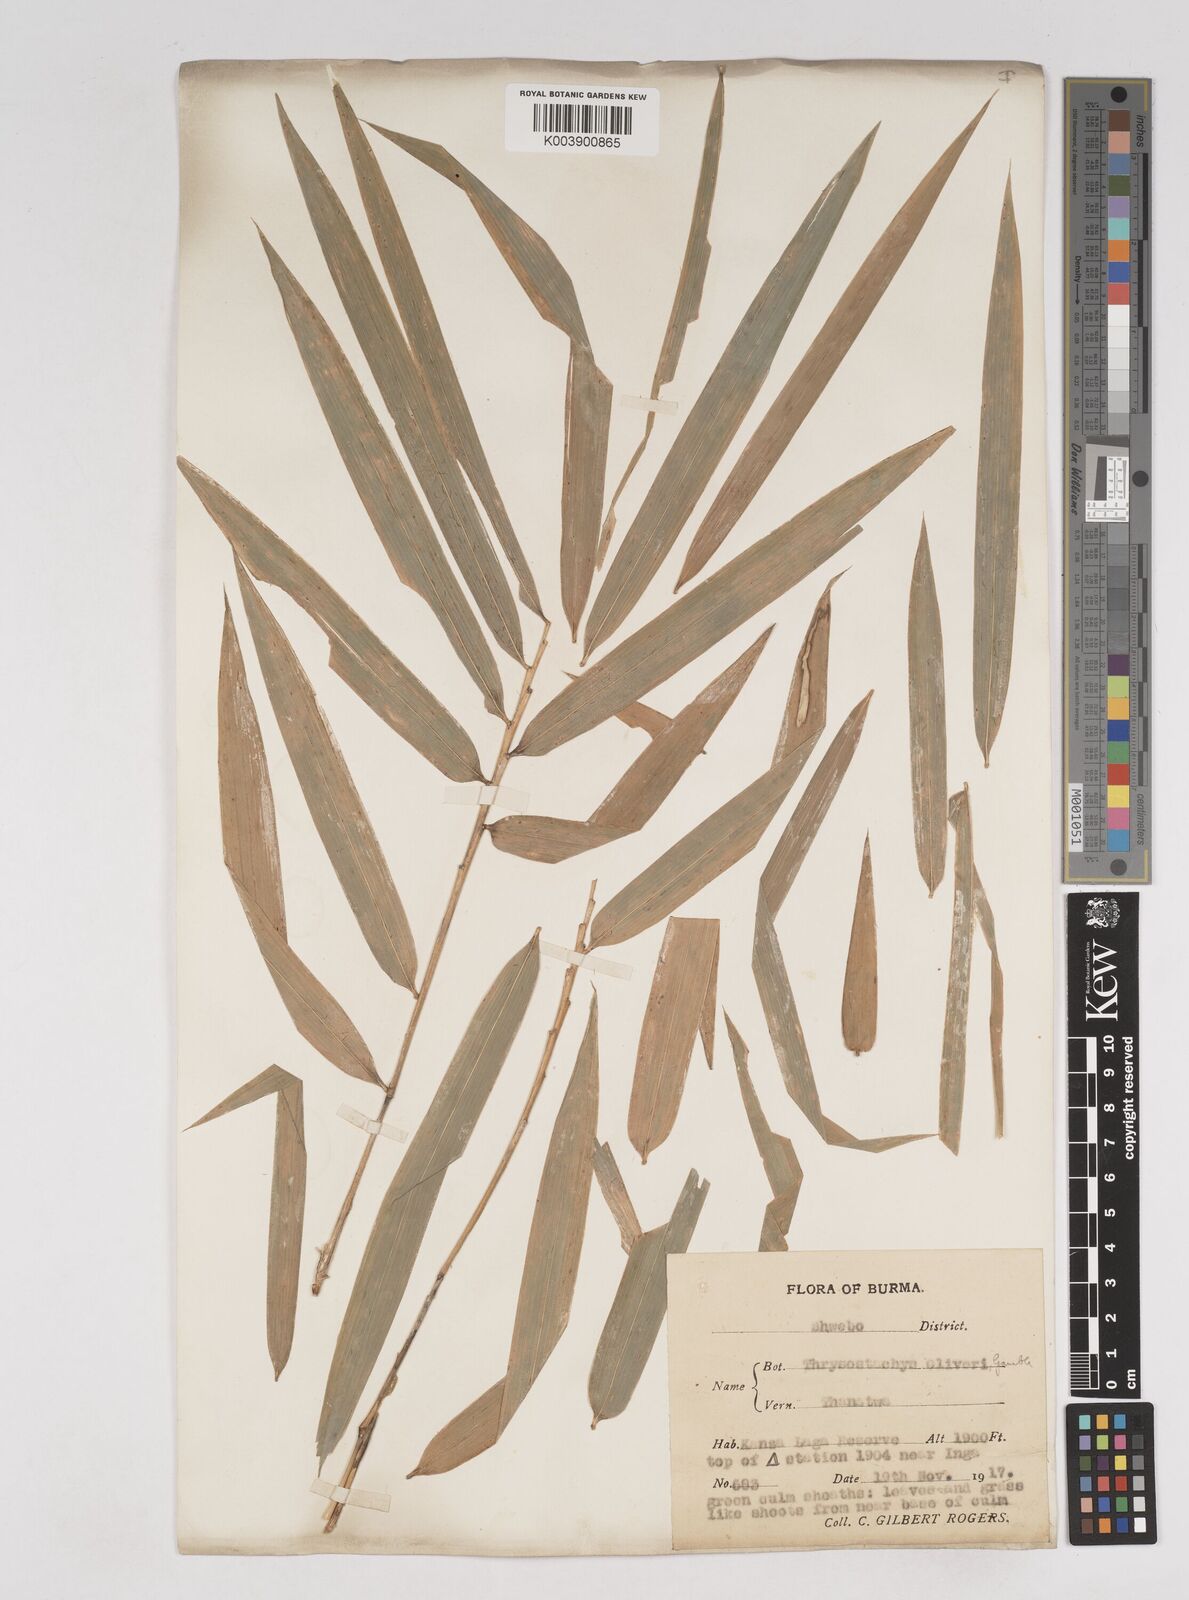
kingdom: Plantae
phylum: Tracheophyta
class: Liliopsida
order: Poales
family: Poaceae
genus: Thyrsostachys
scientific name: Thyrsostachys oliveri
